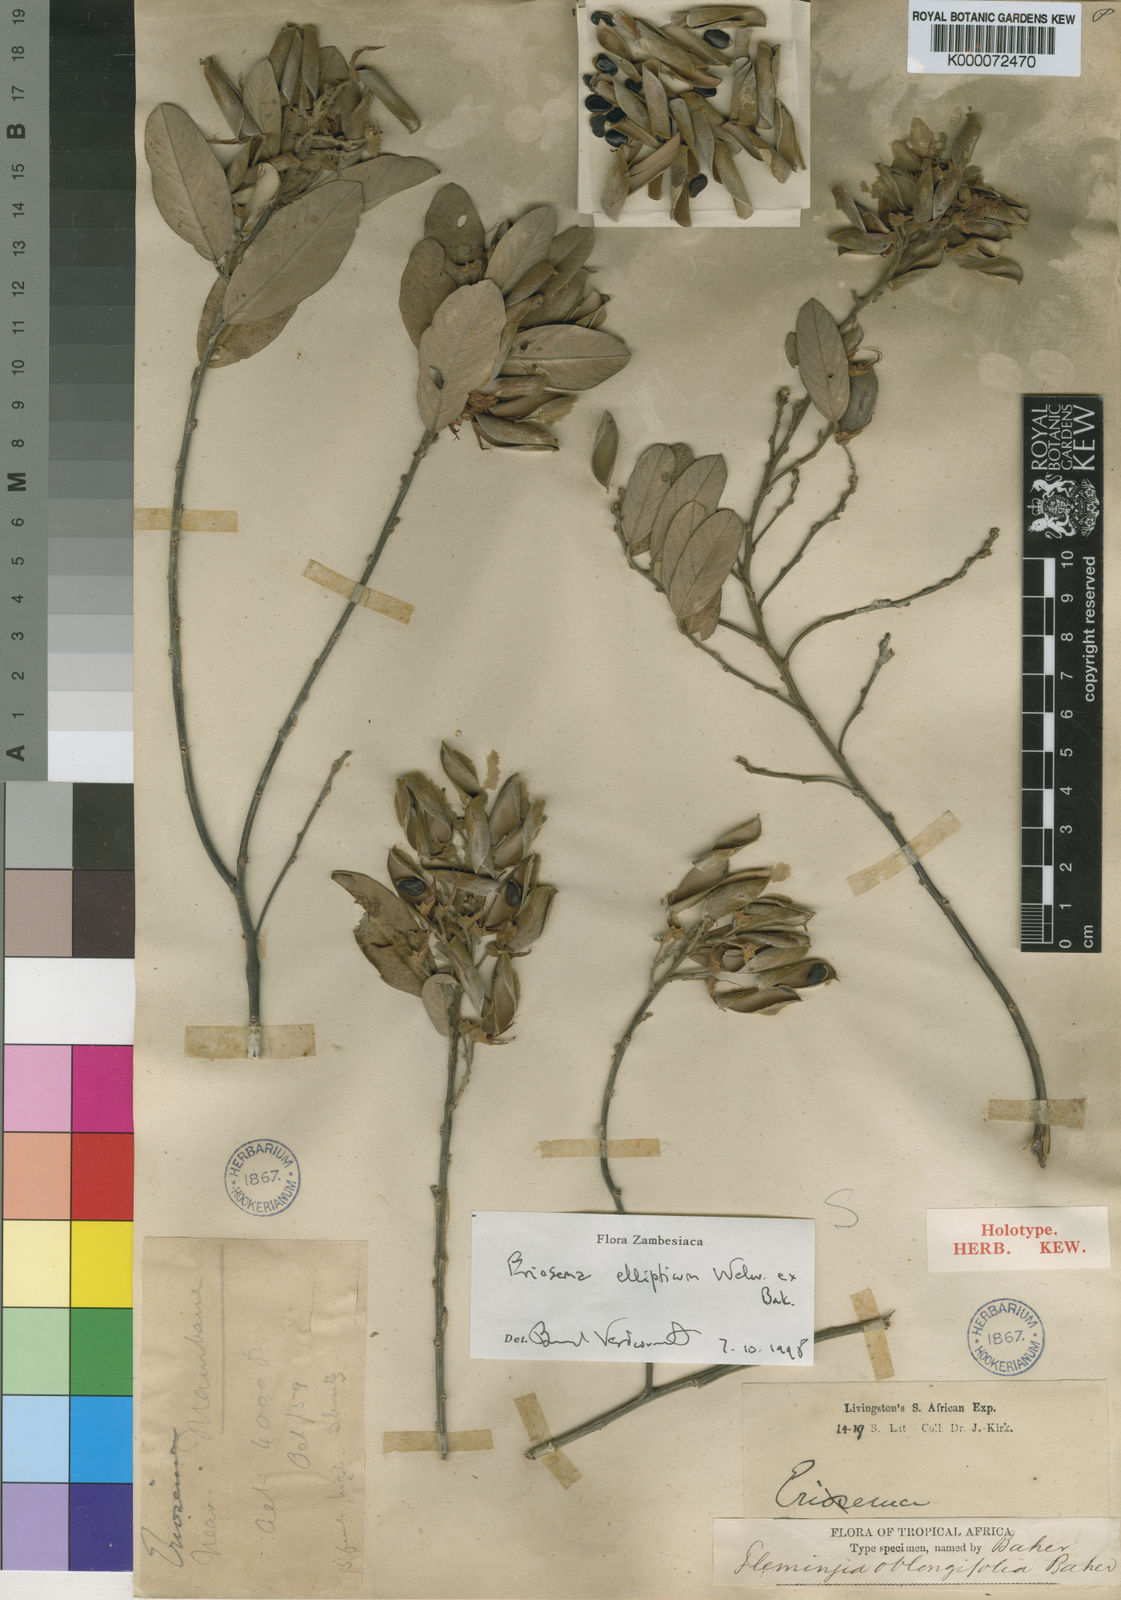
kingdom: Plantae
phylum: Tracheophyta
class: Magnoliopsida
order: Fabales
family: Fabaceae
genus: Eriosema
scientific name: Eriosema ellipticum
